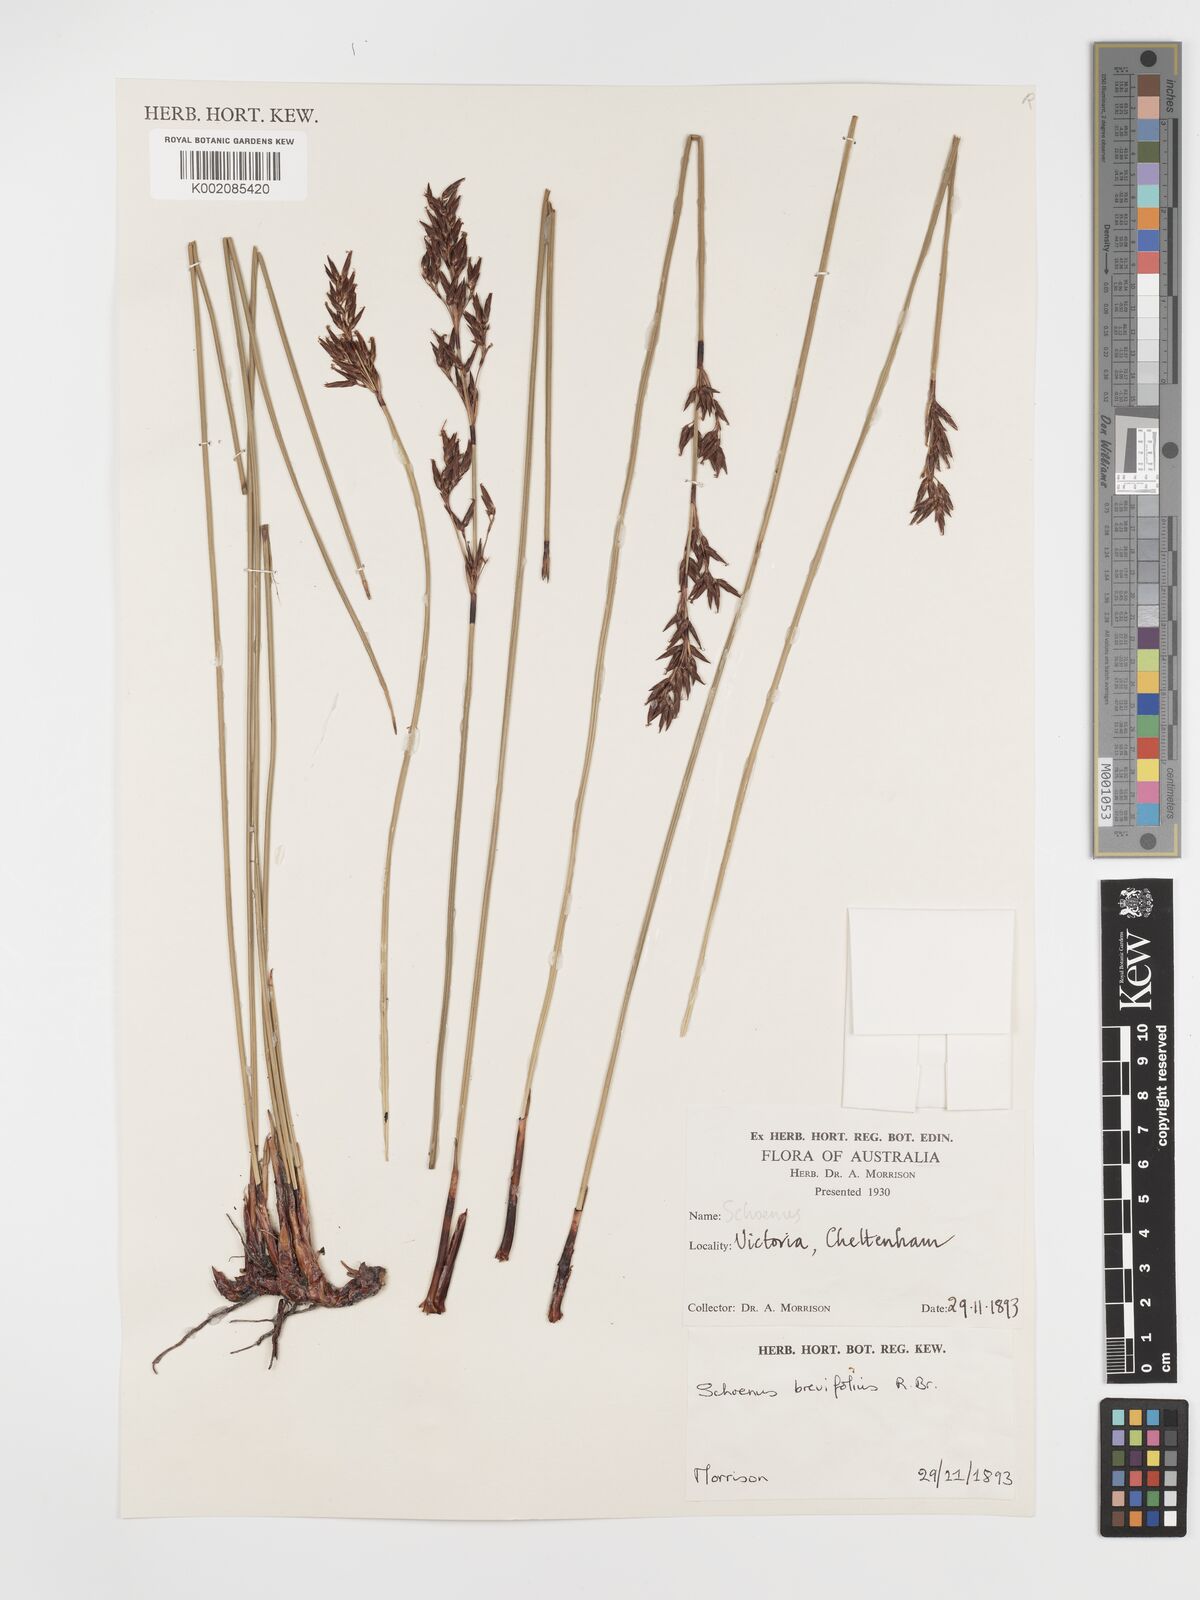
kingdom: Plantae
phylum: Tracheophyta
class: Liliopsida
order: Poales
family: Cyperaceae
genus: Schoenus
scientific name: Schoenus brevifolius
